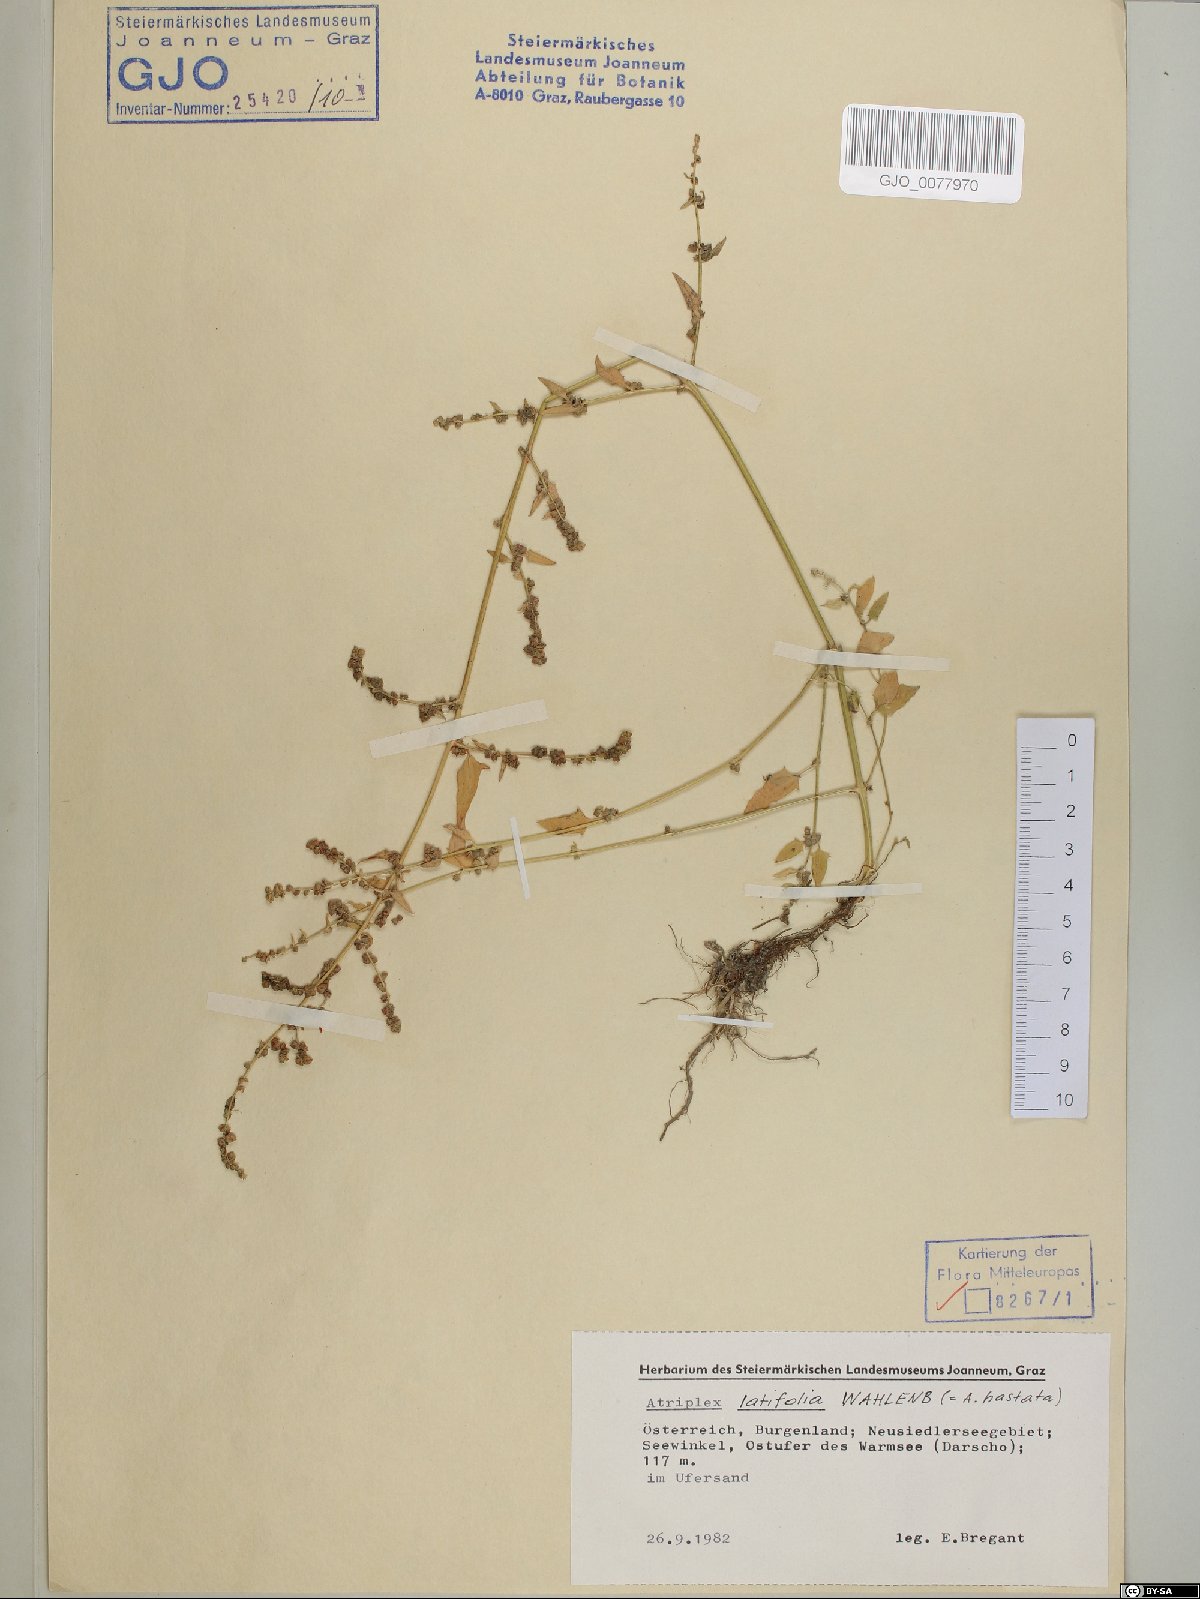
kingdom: Plantae
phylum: Tracheophyta
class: Magnoliopsida
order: Caryophyllales
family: Amaranthaceae
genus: Atriplex
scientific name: Atriplex prostrata
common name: Spear-leaved orache
